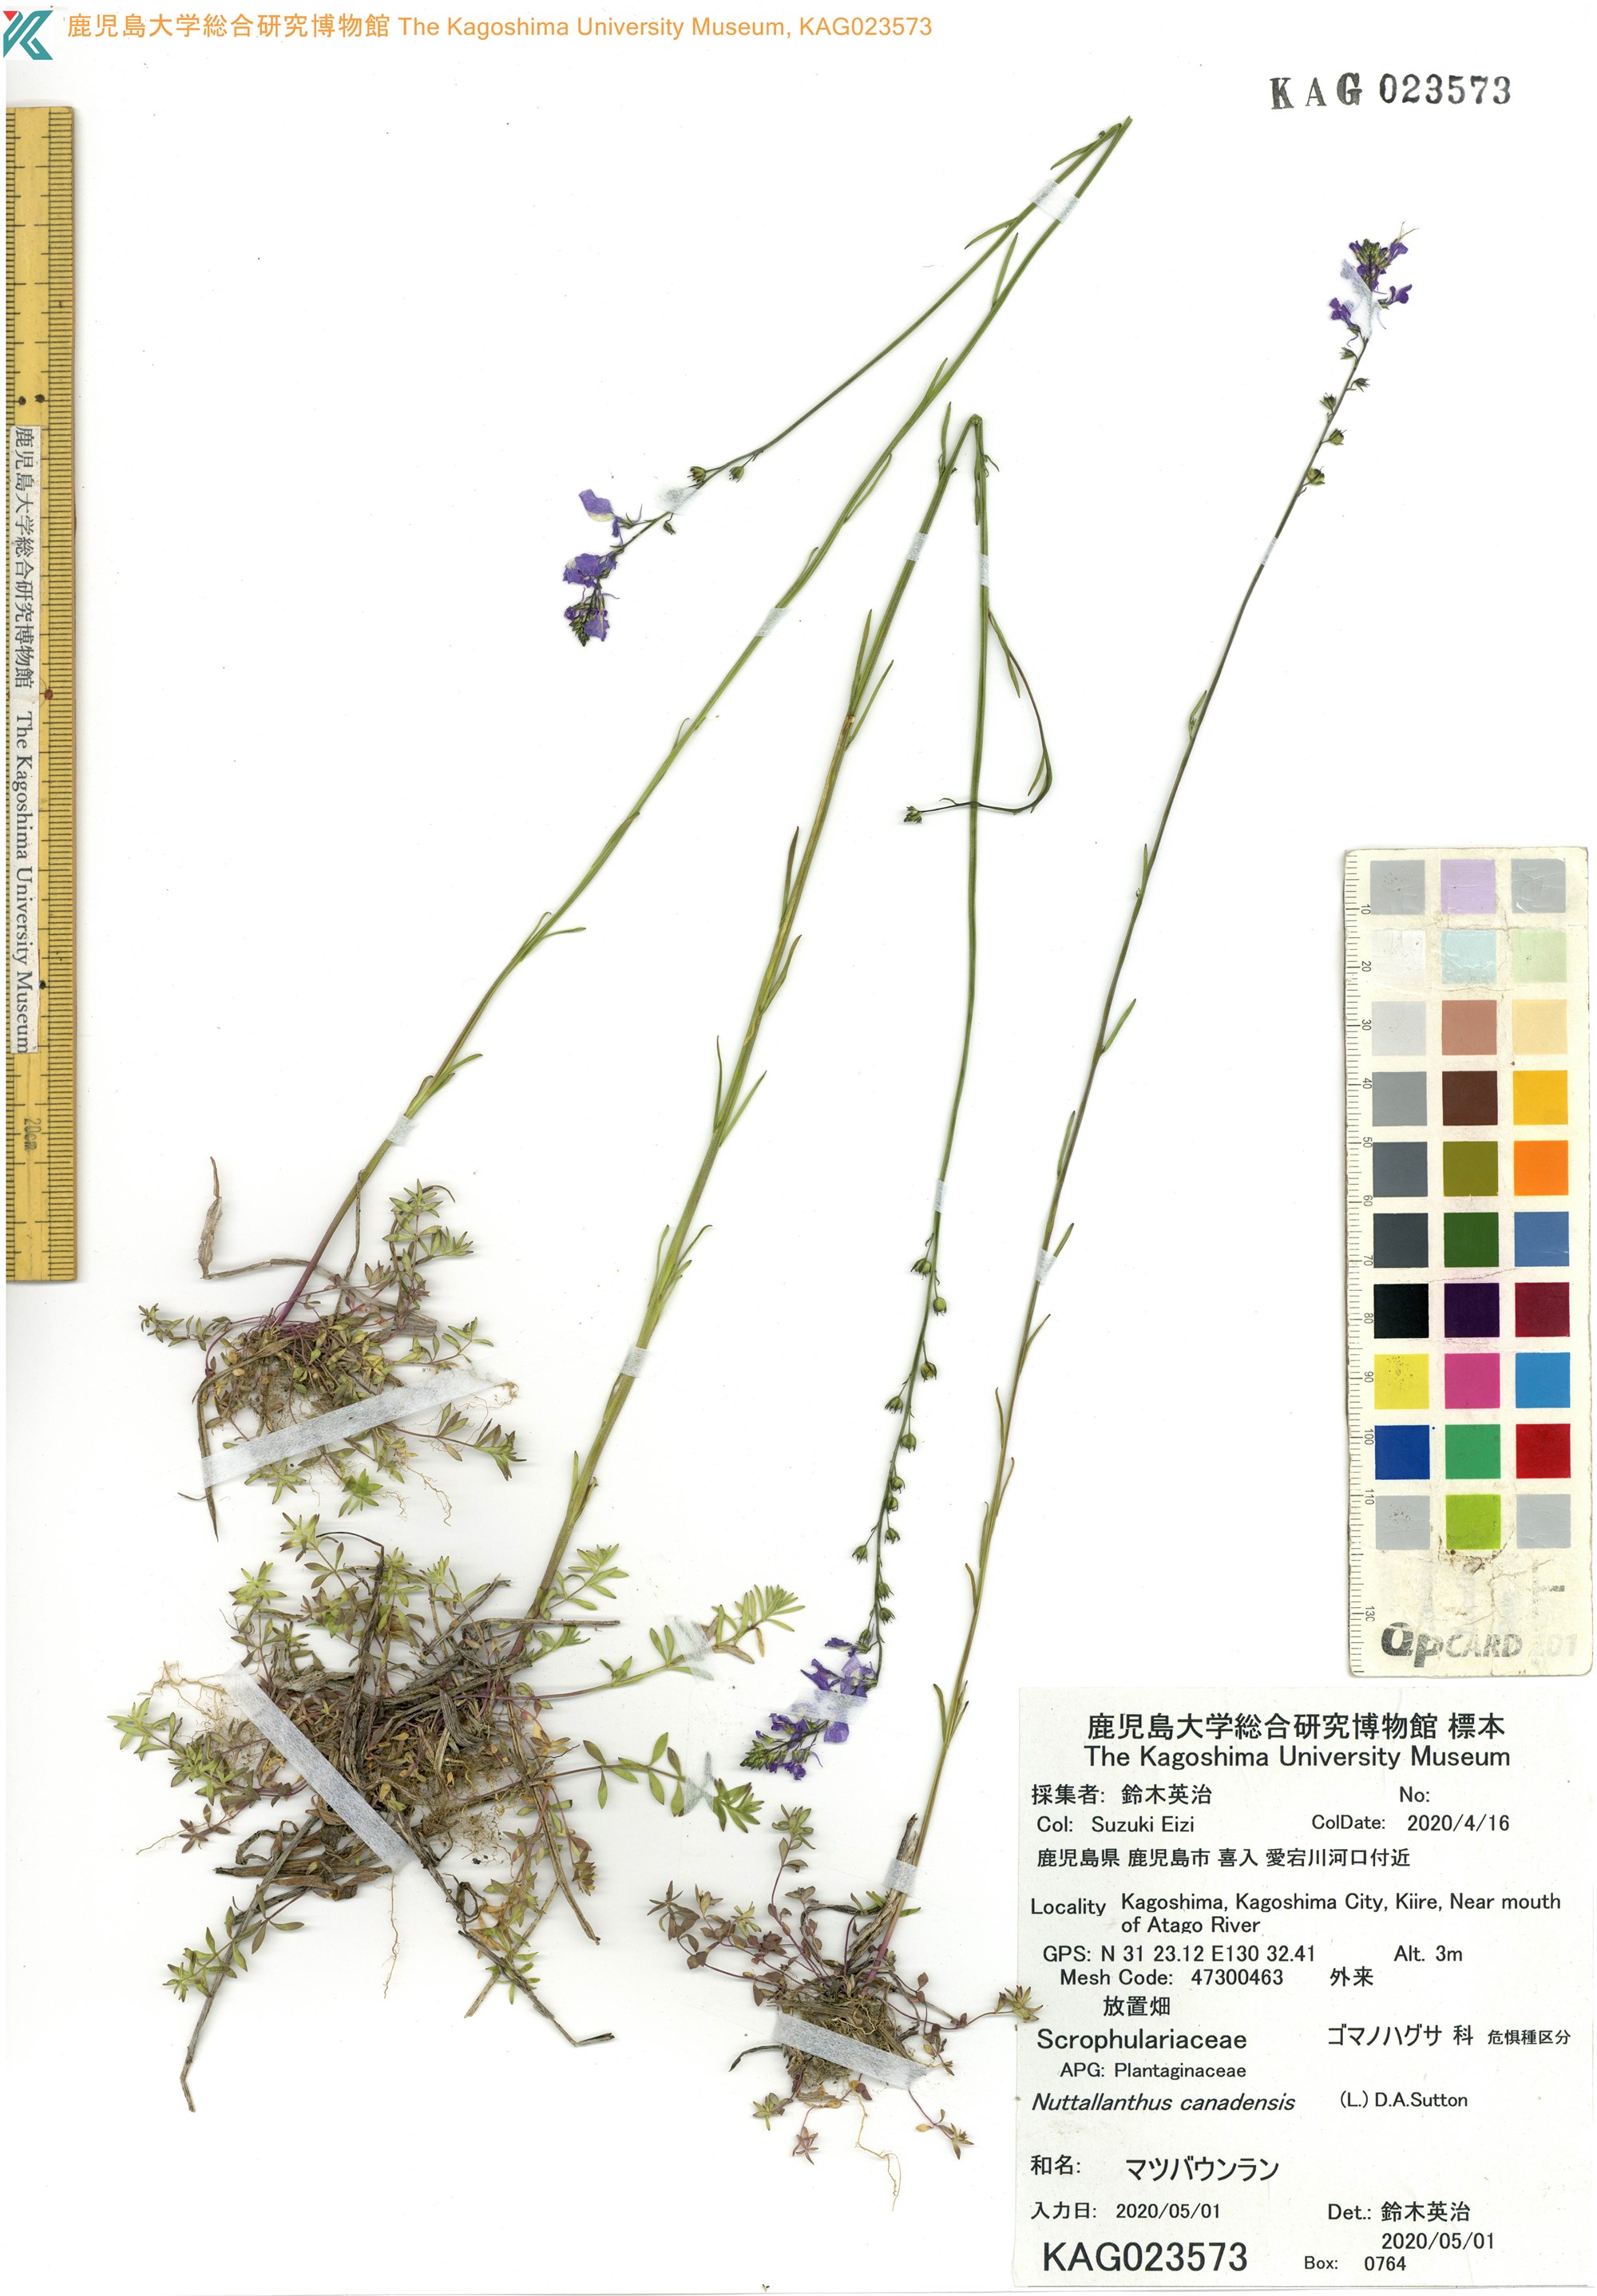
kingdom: Plantae
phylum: Tracheophyta
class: Magnoliopsida
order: Lamiales
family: Plantaginaceae
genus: Nuttallanthus
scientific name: Nuttallanthus canadensis
